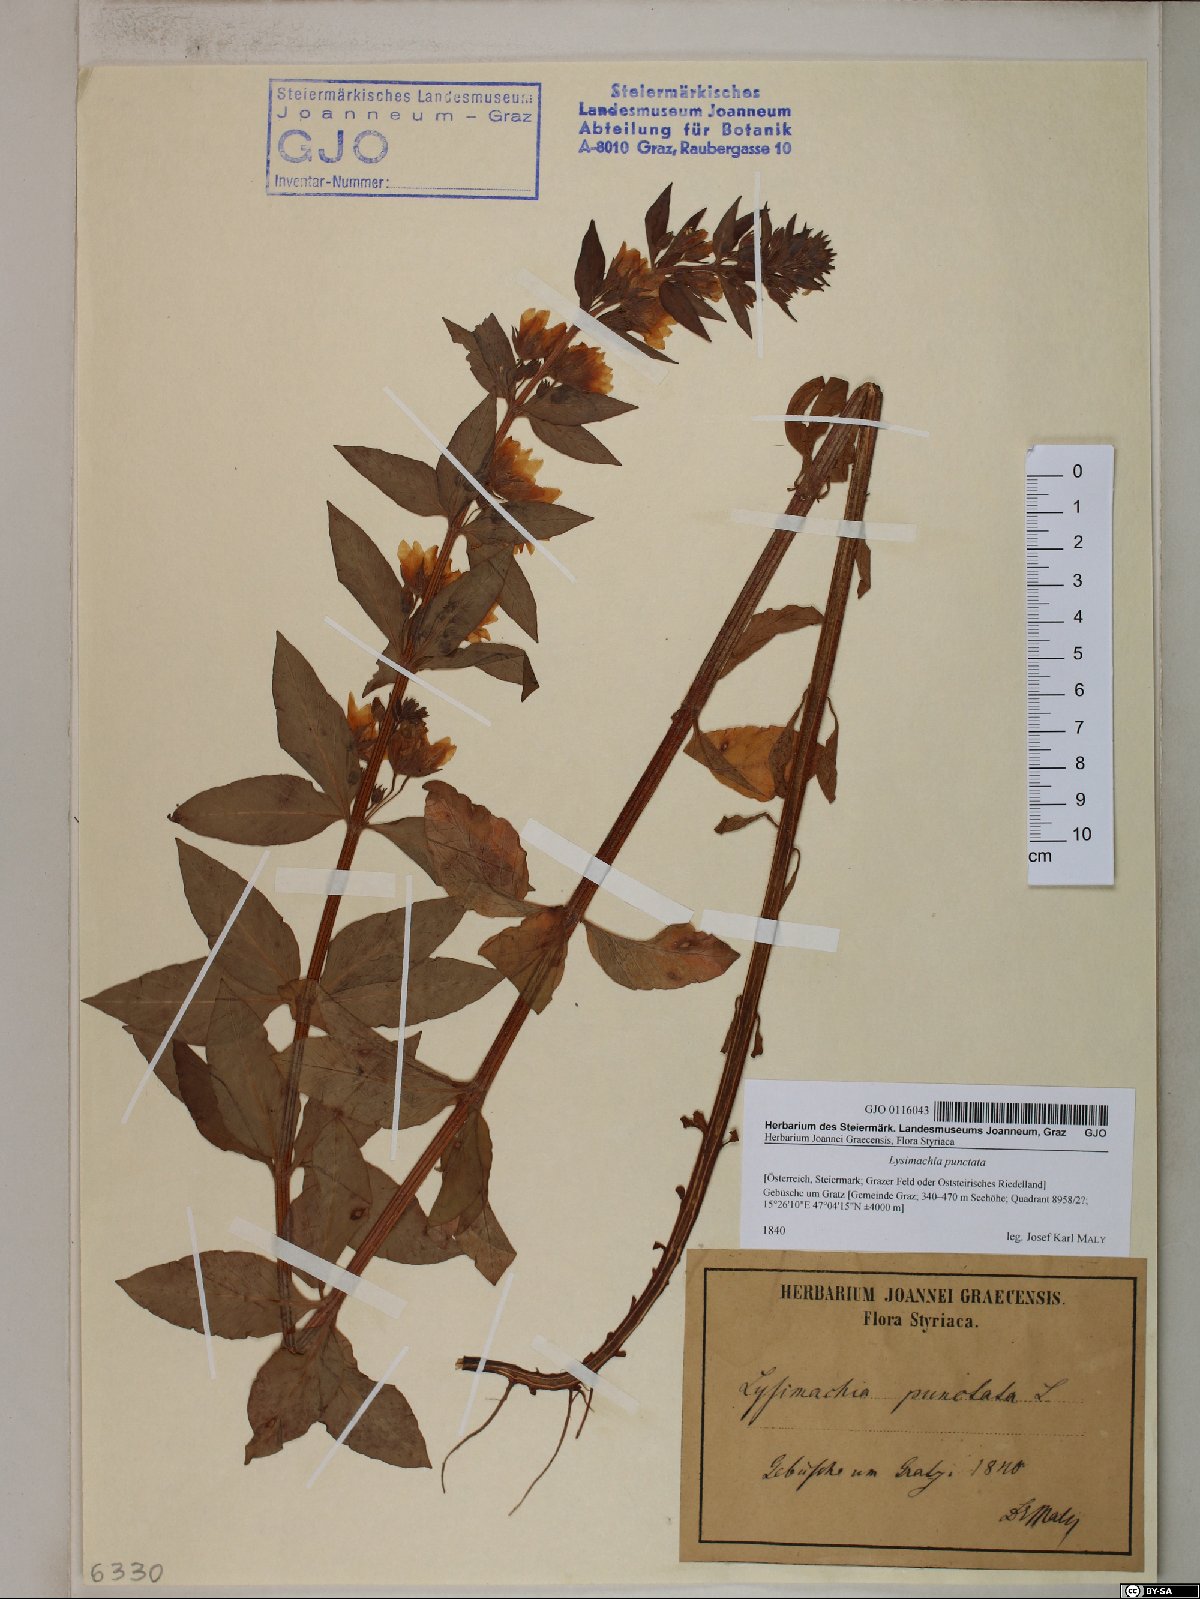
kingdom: Plantae
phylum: Tracheophyta
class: Magnoliopsida
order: Ericales
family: Primulaceae
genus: Lysimachia
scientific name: Lysimachia punctata
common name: Dotted loosestrife
